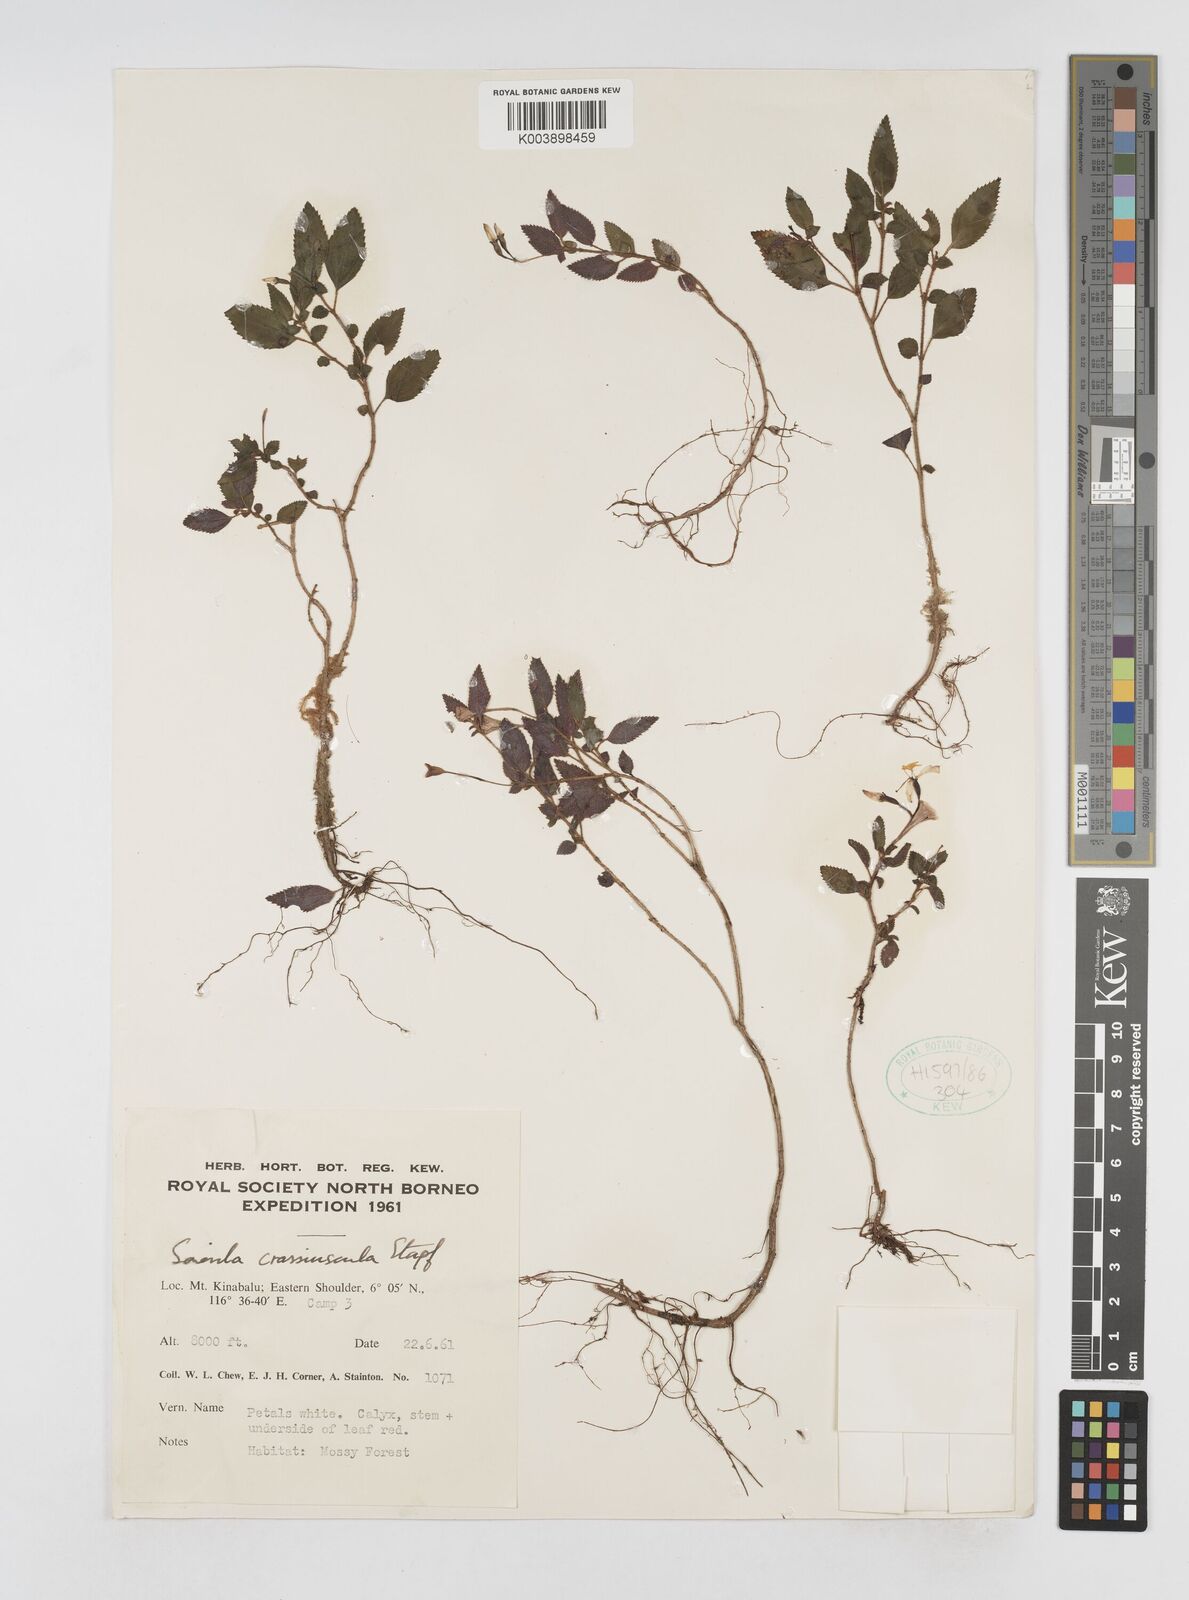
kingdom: Plantae
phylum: Tracheophyta
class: Magnoliopsida
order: Myrtales
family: Melastomataceae
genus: Sonerila
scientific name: Sonerila crassiuscula
